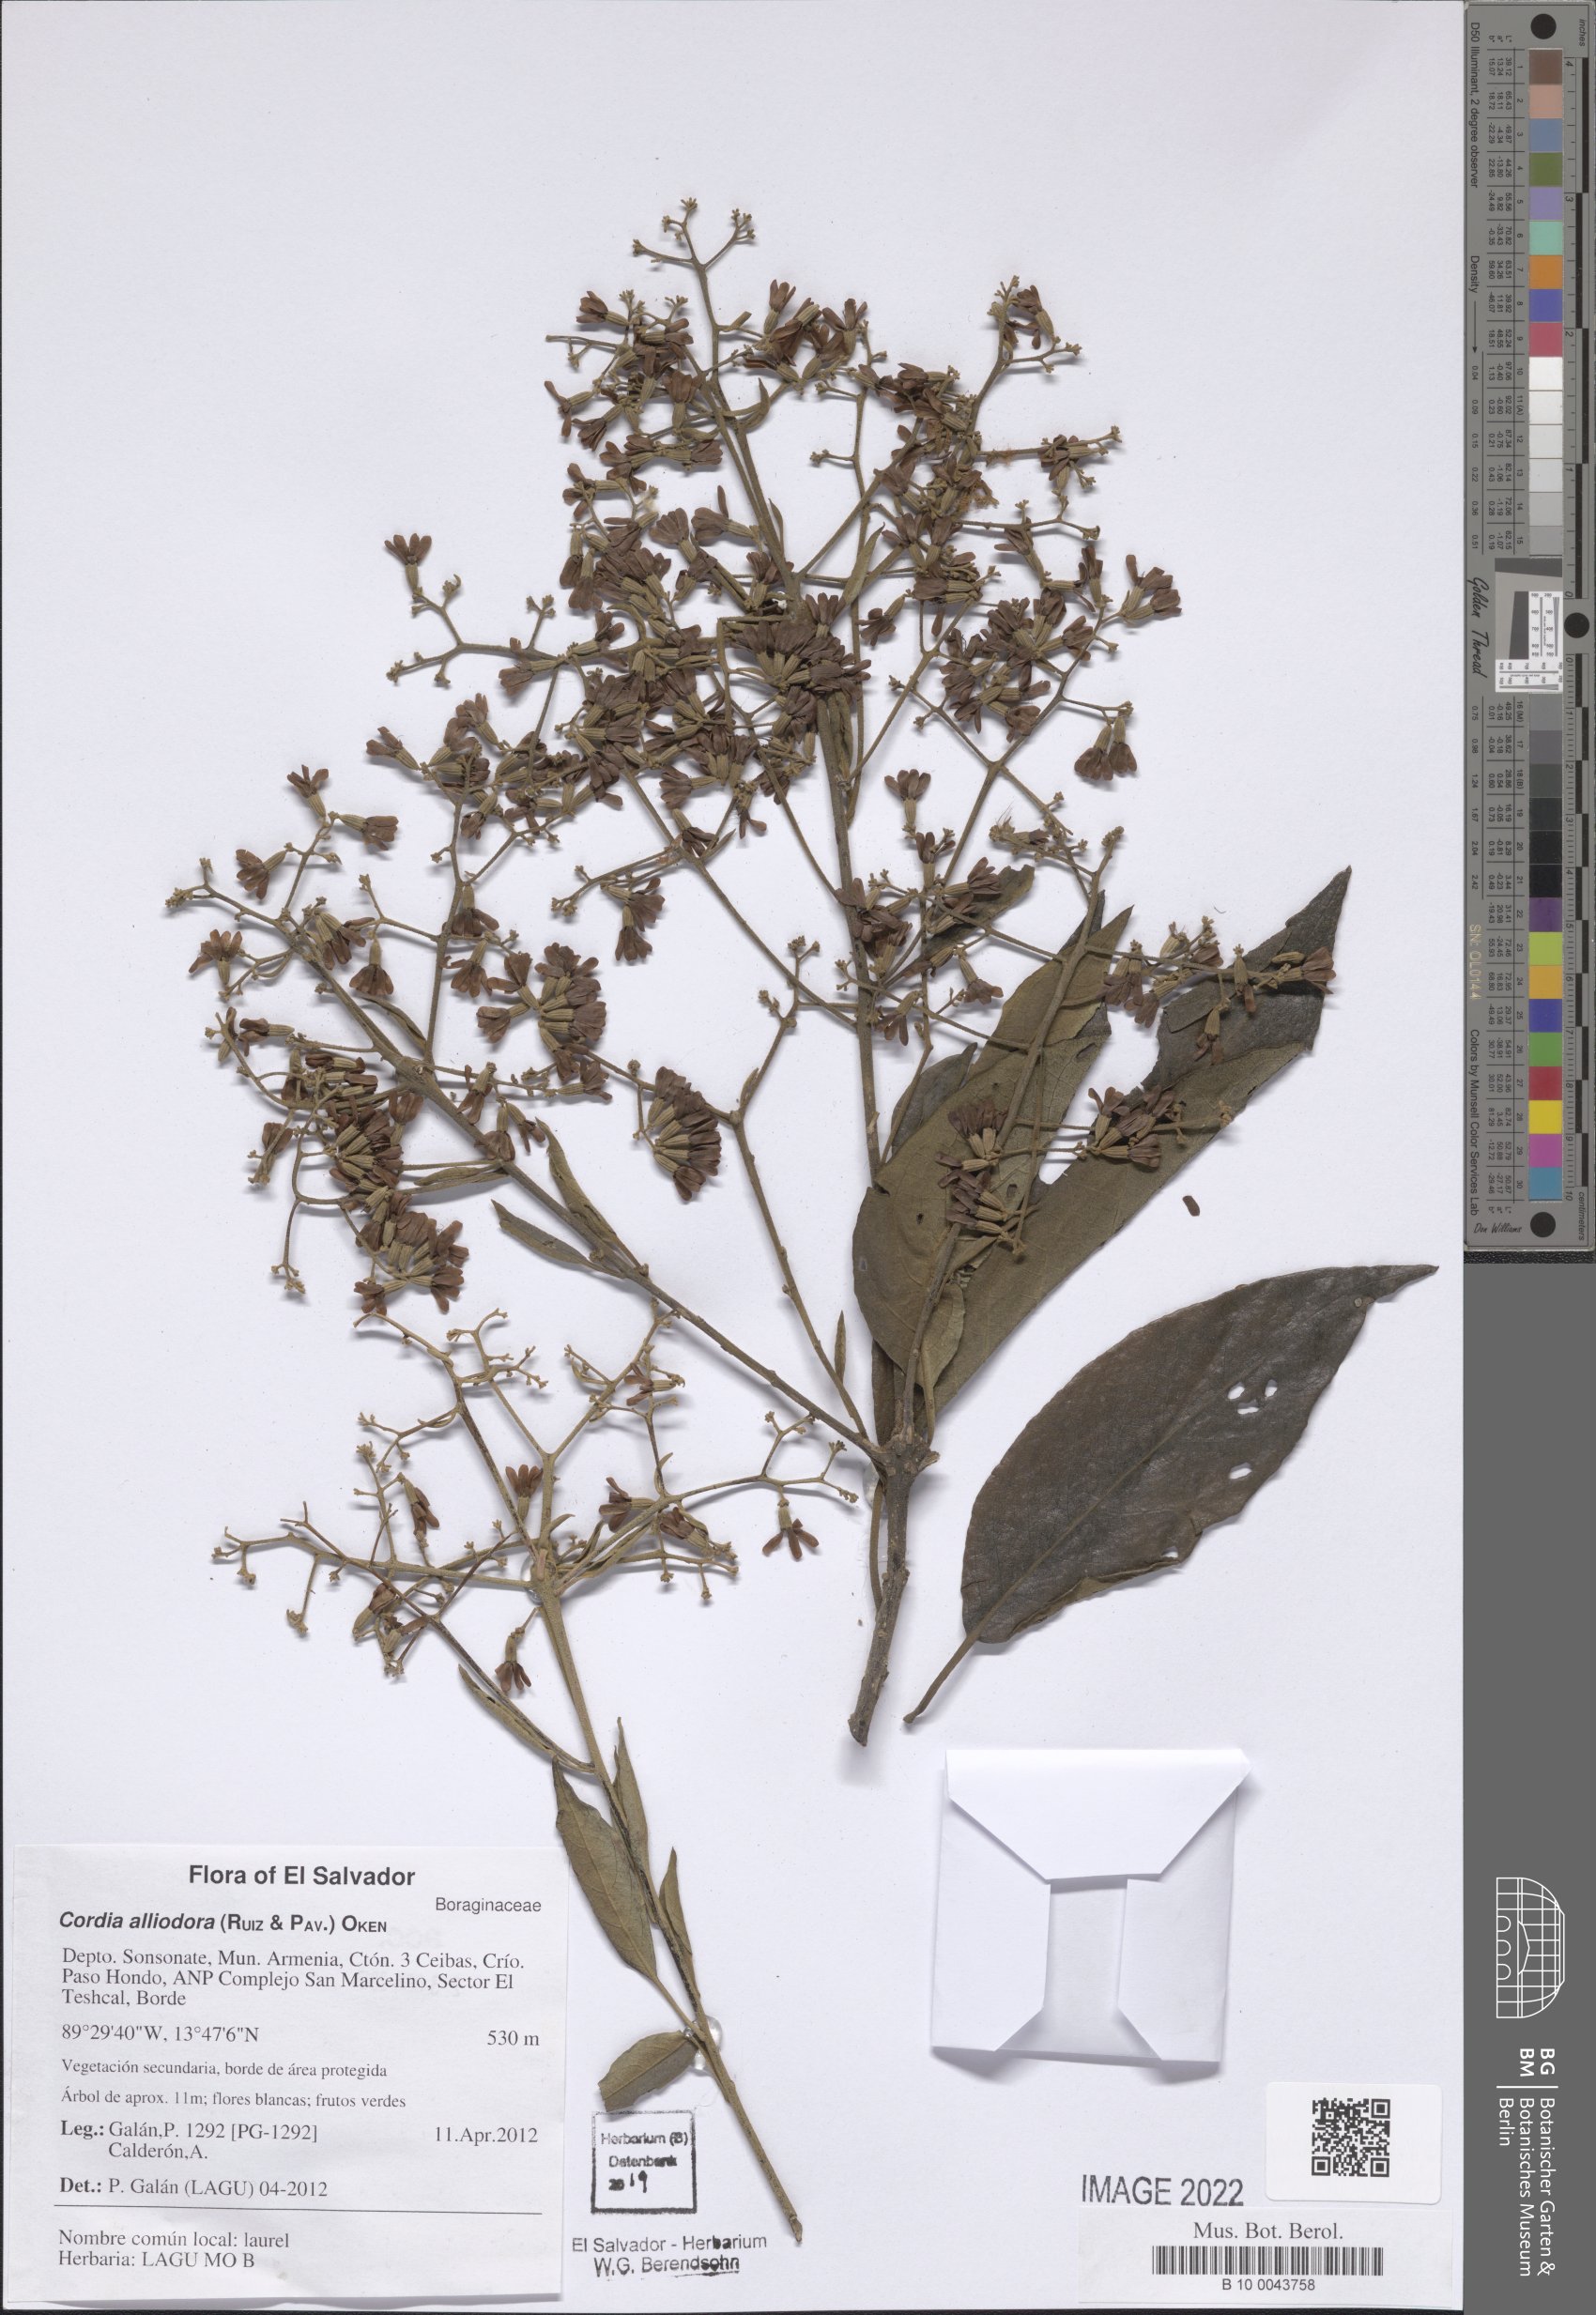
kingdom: Plantae
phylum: Tracheophyta
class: Magnoliopsida
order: Boraginales
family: Cordiaceae
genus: Cordia
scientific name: Cordia alliodora
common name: Spanish elm
